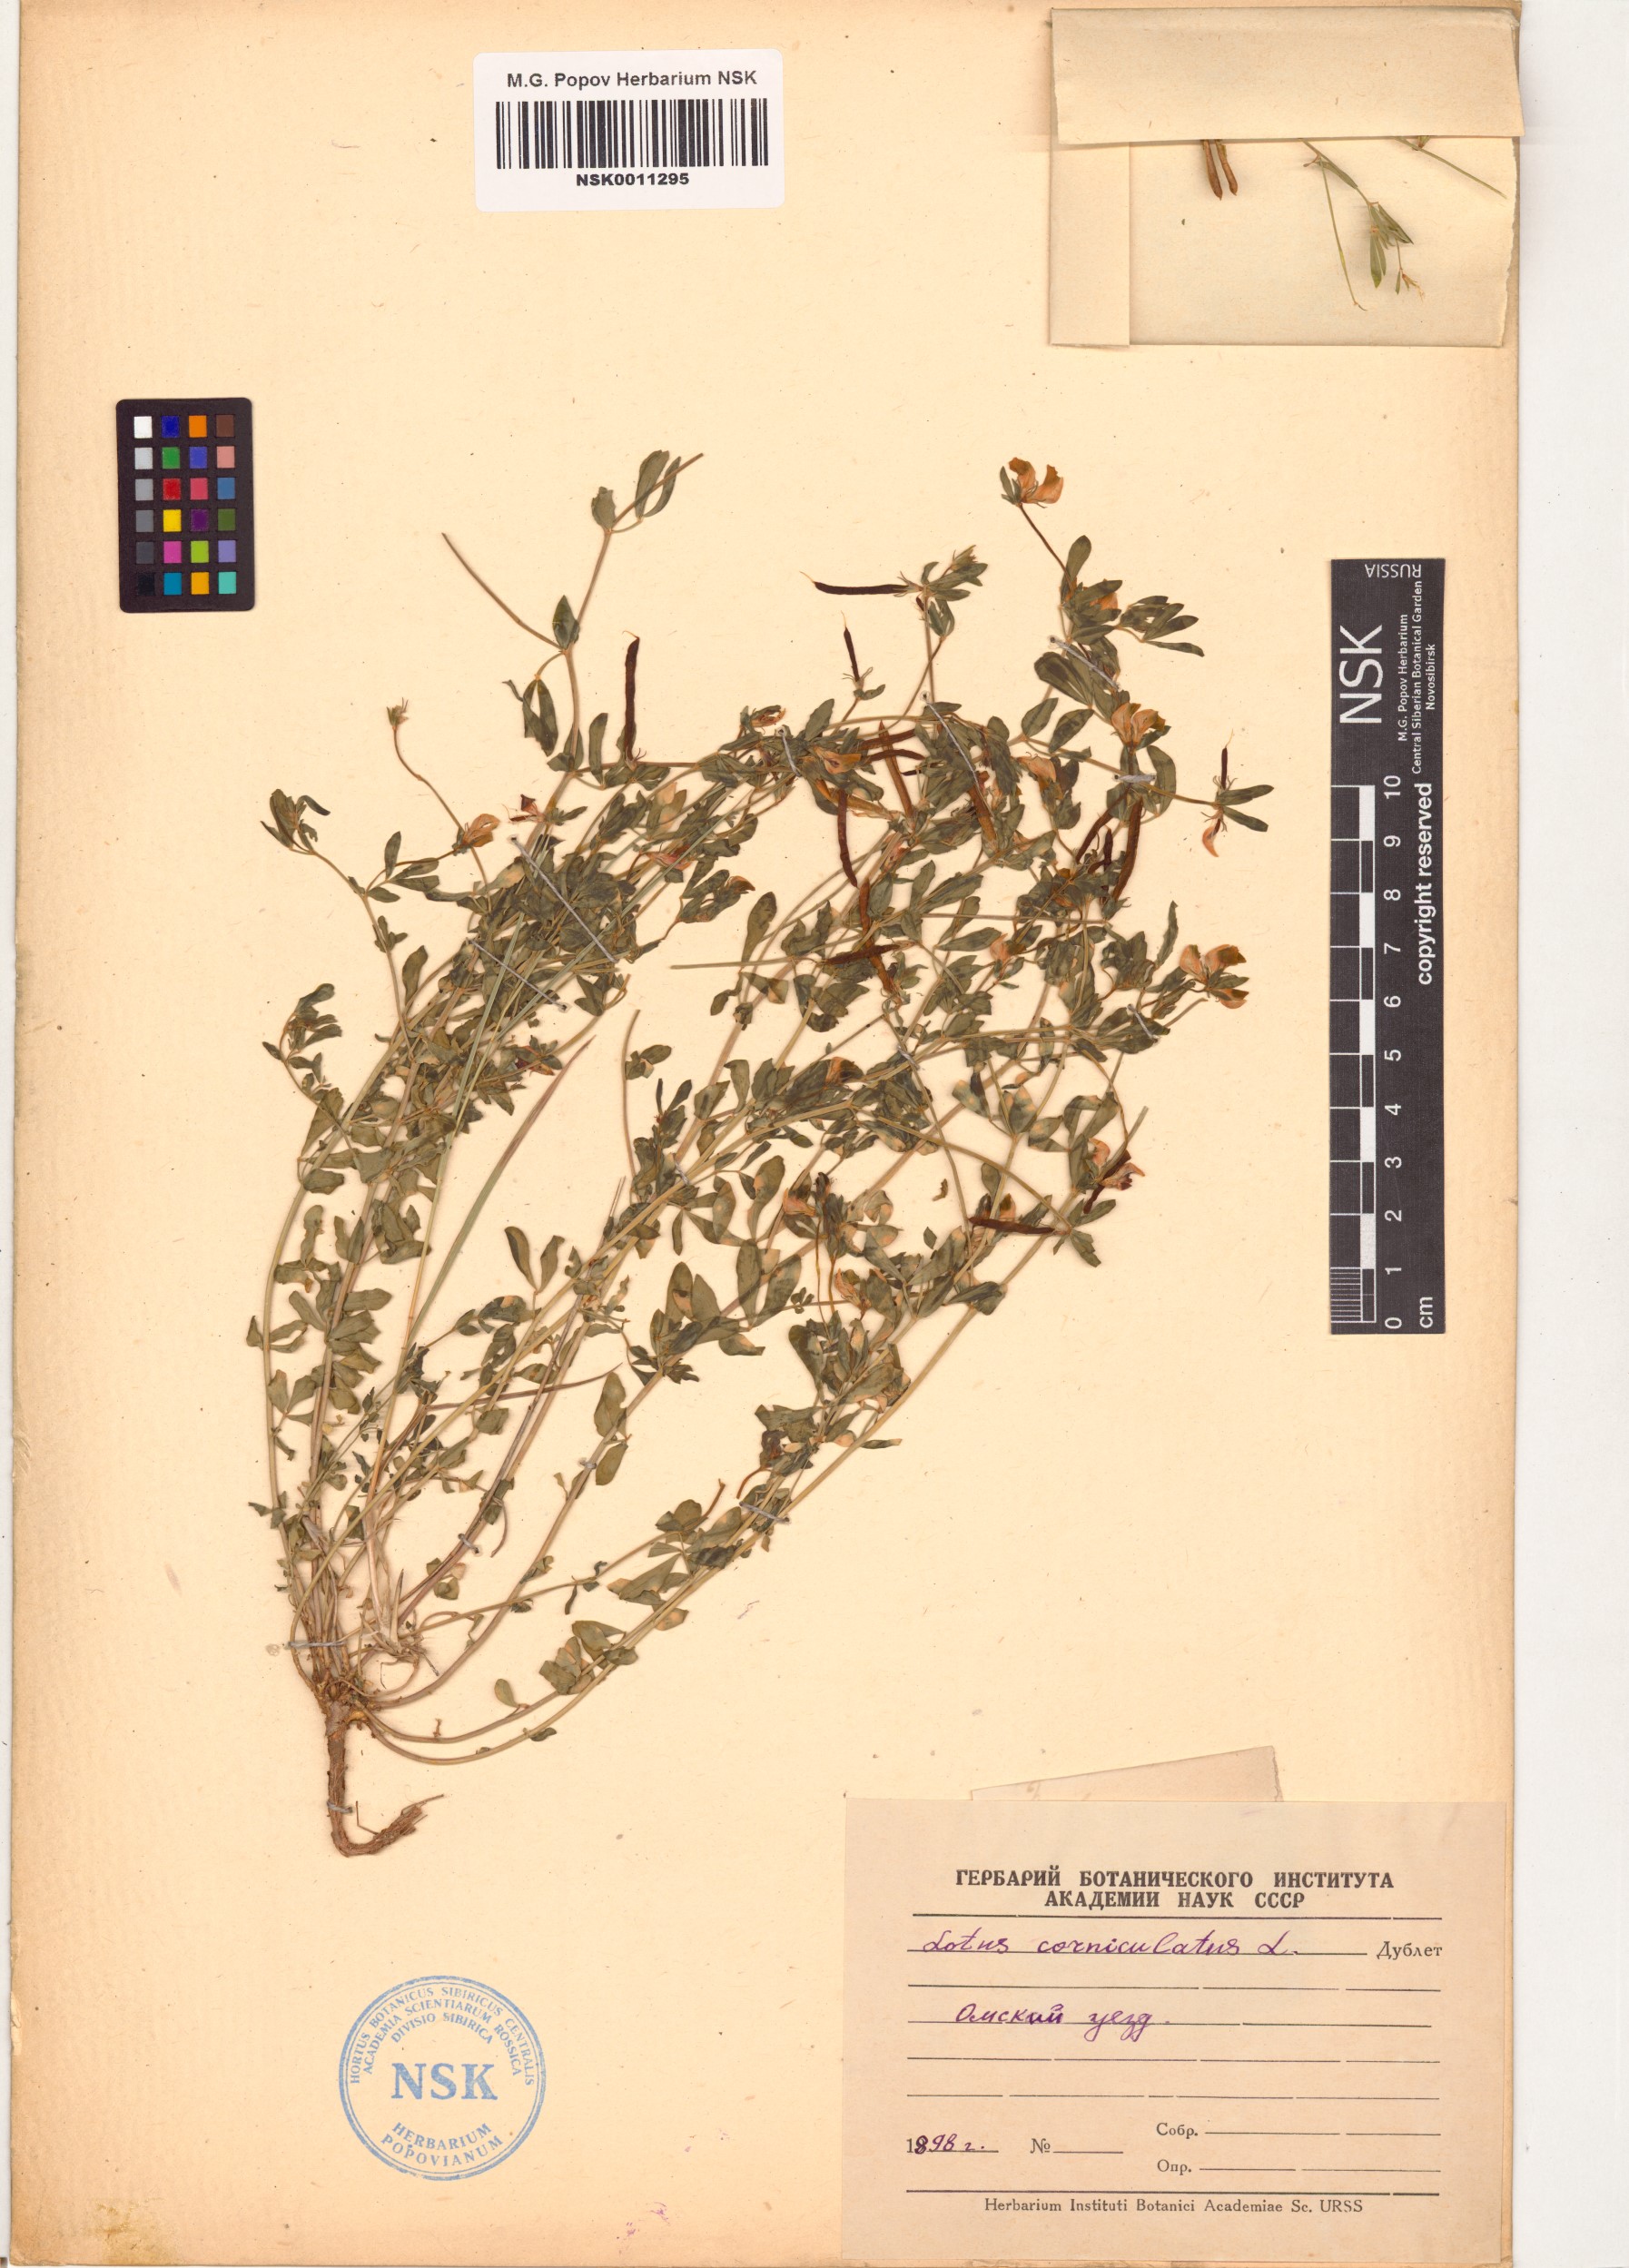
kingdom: Plantae
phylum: Tracheophyta
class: Magnoliopsida
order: Fabales
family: Fabaceae
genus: Lotus
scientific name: Lotus corniculatus
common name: Common bird's-foot-trefoil
